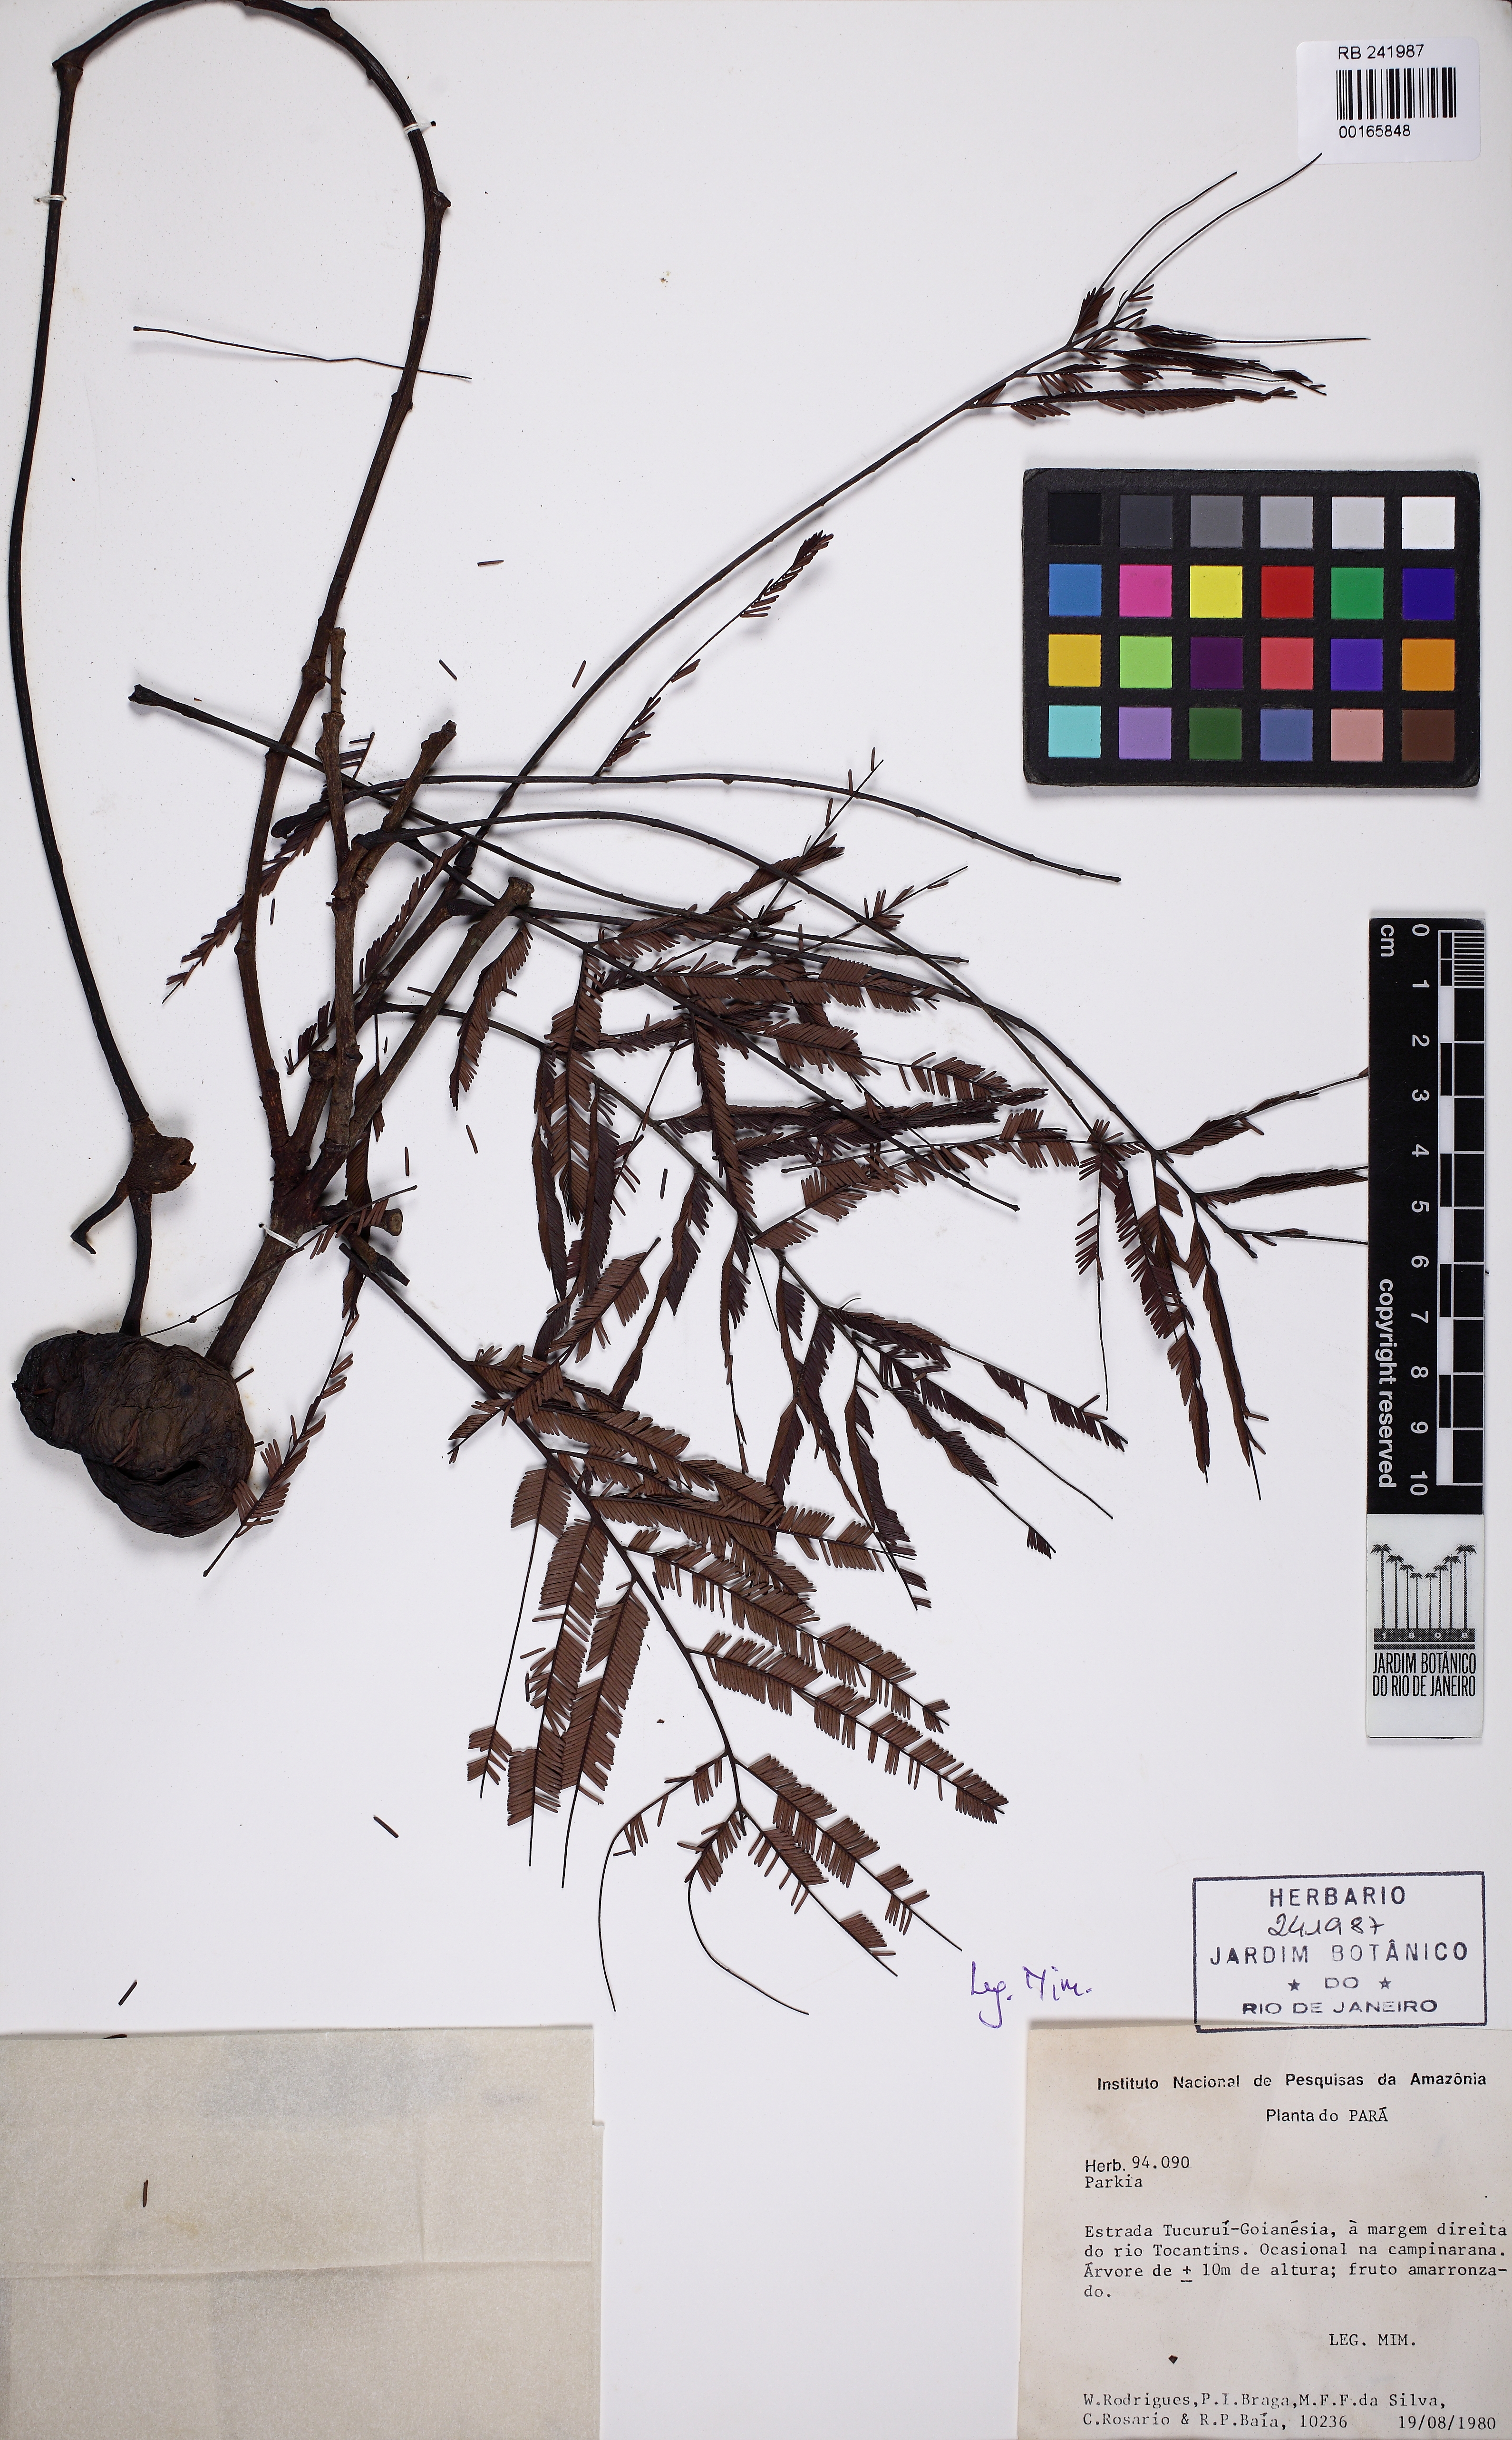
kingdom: Plantae
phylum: Tracheophyta
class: Magnoliopsida
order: Fabales
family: Fabaceae
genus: Parkia
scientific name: Parkia pendula
